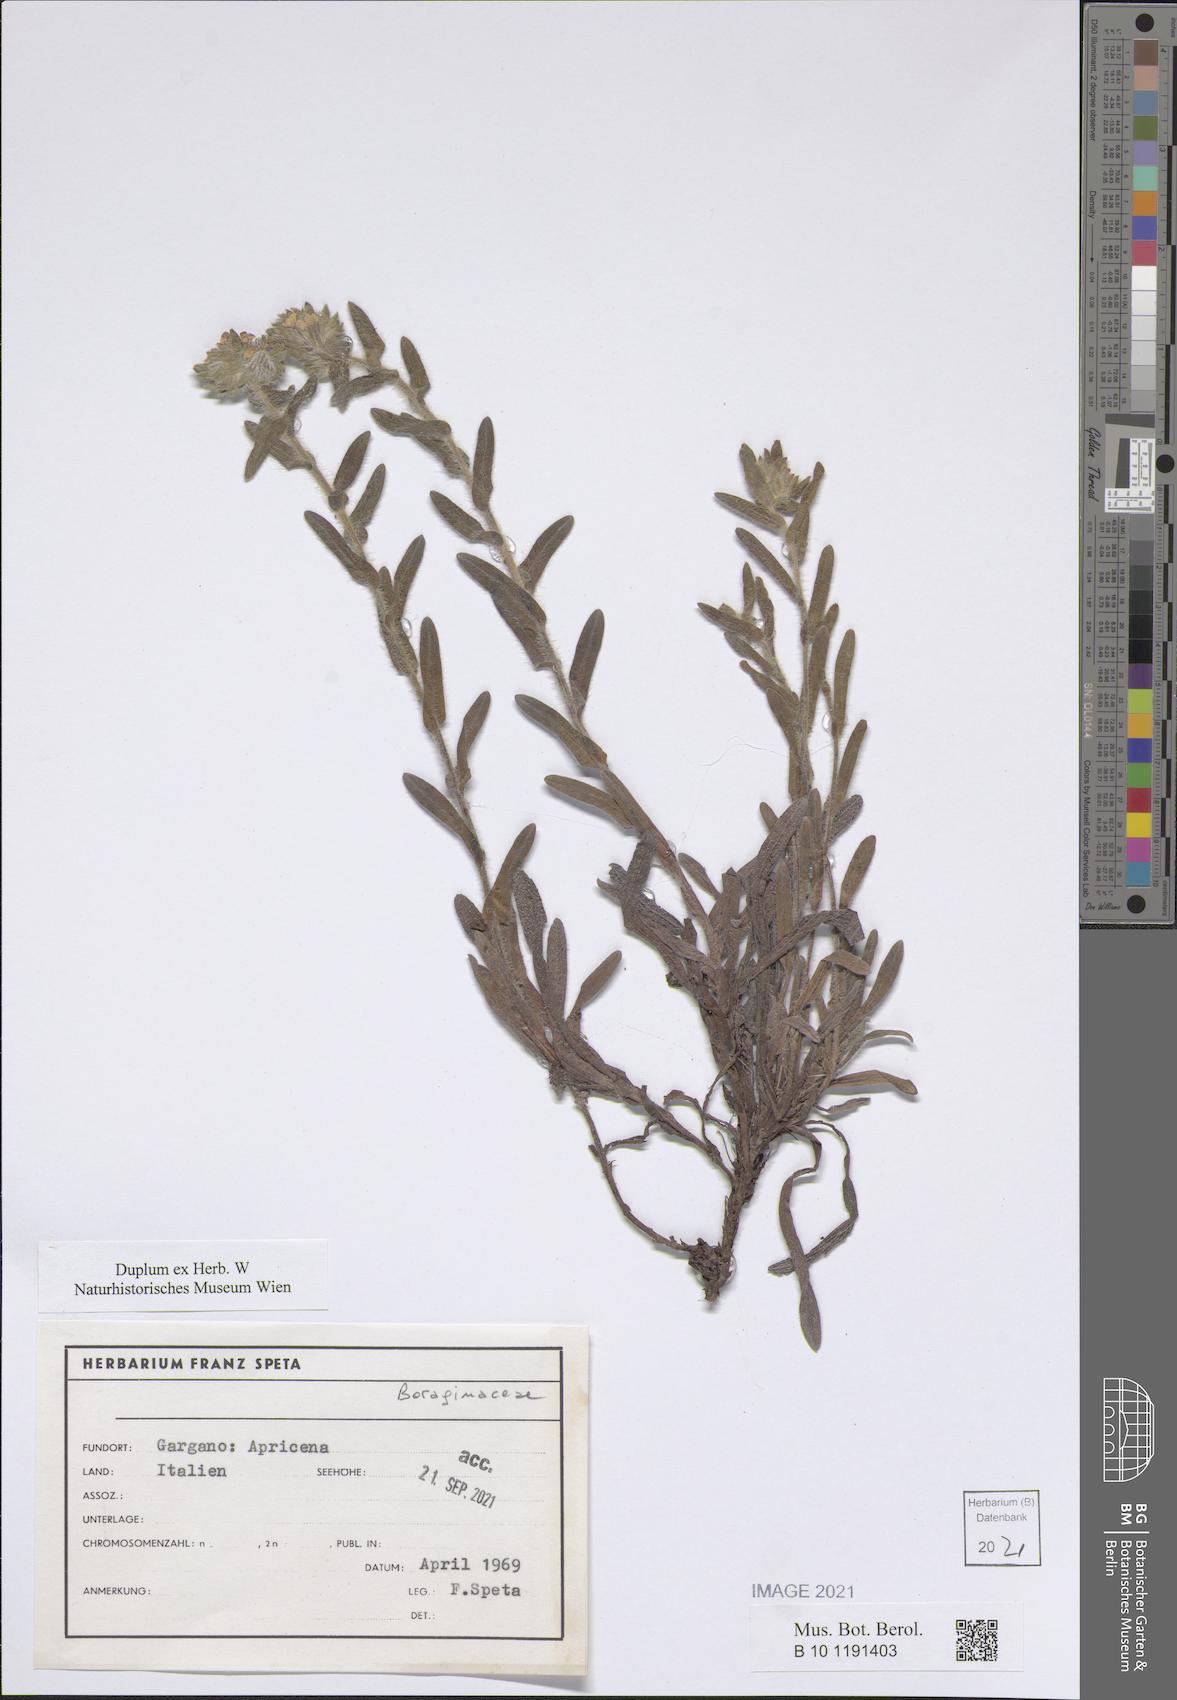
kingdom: Plantae
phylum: Tracheophyta
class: Magnoliopsida
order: Boraginales
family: Boraginaceae
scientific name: Boraginaceae
